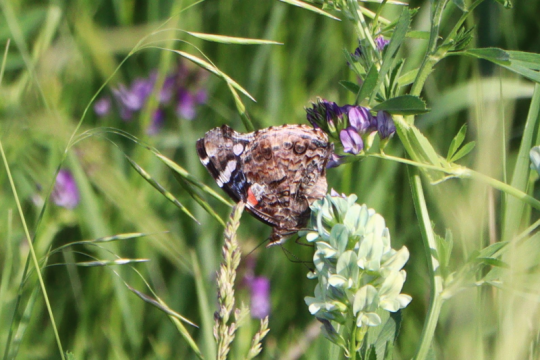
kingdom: Animalia
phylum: Arthropoda
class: Insecta
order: Lepidoptera
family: Nymphalidae
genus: Vanessa
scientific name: Vanessa atalanta
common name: Red Admiral
